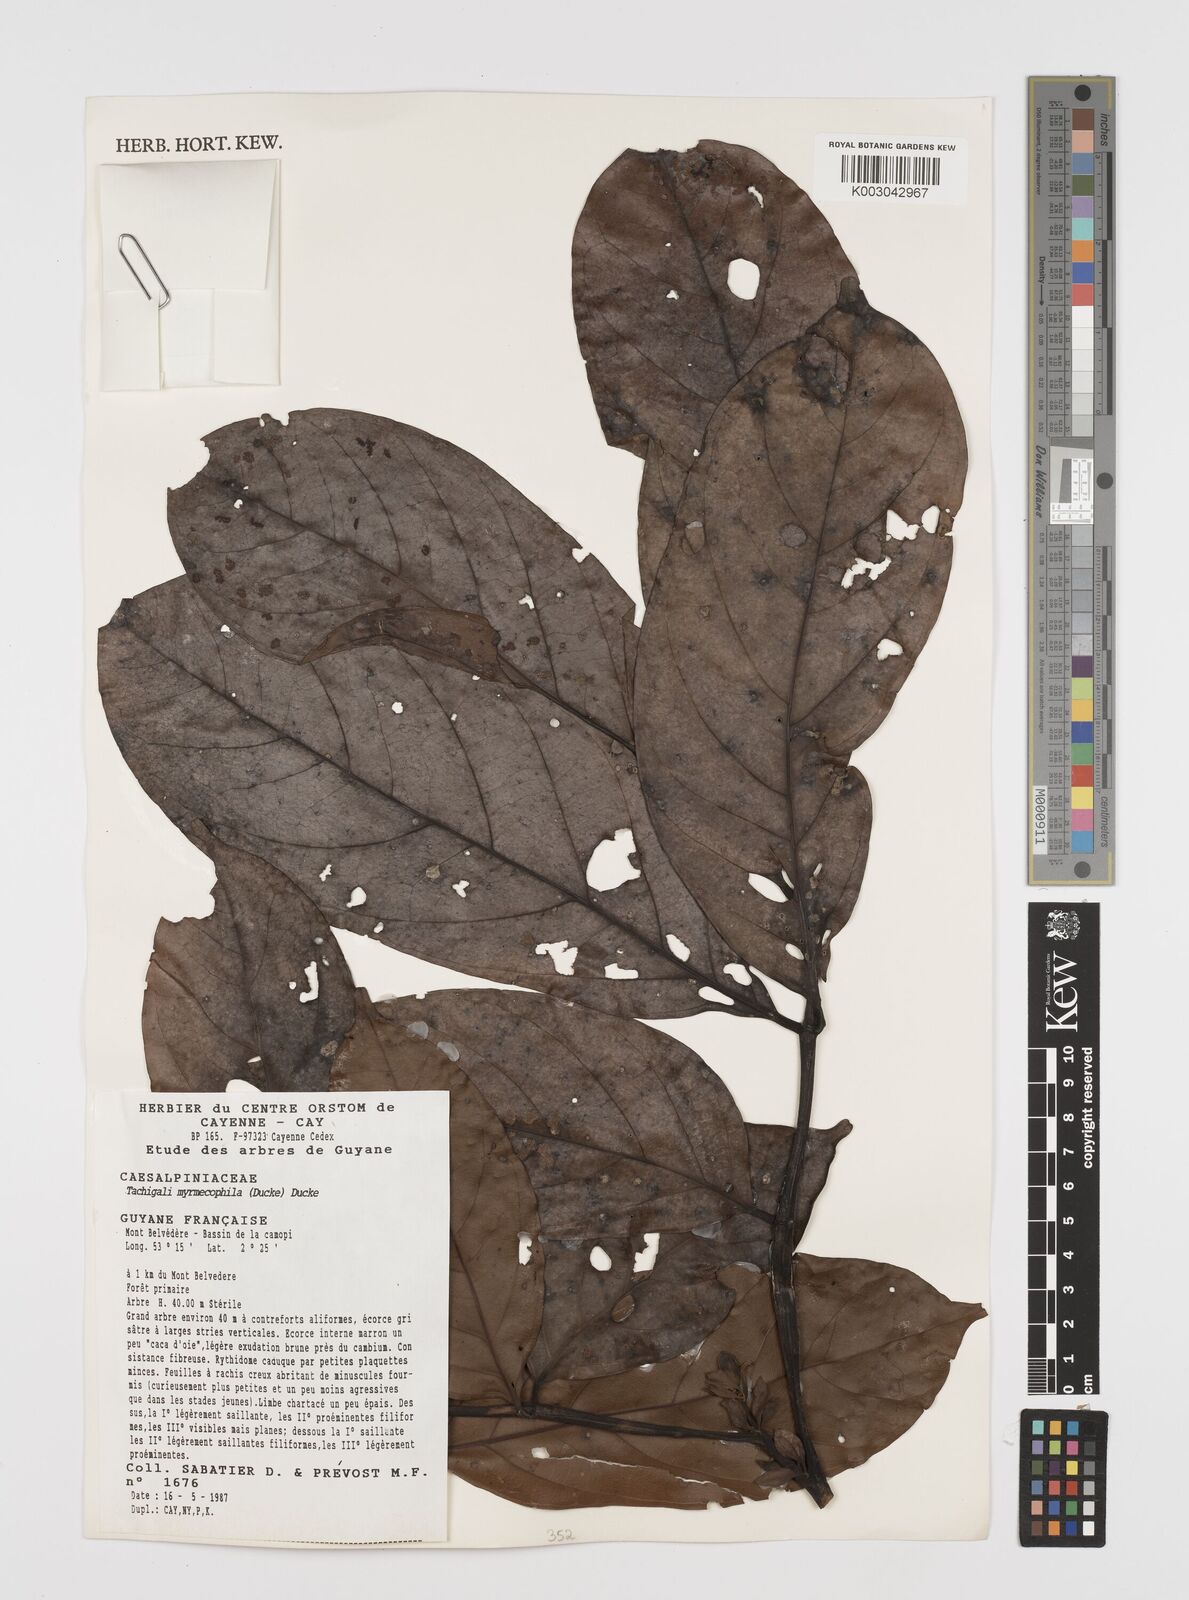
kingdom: Plantae
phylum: Tracheophyta
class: Magnoliopsida
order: Fabales
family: Fabaceae
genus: Tachigali
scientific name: Tachigali glauca
